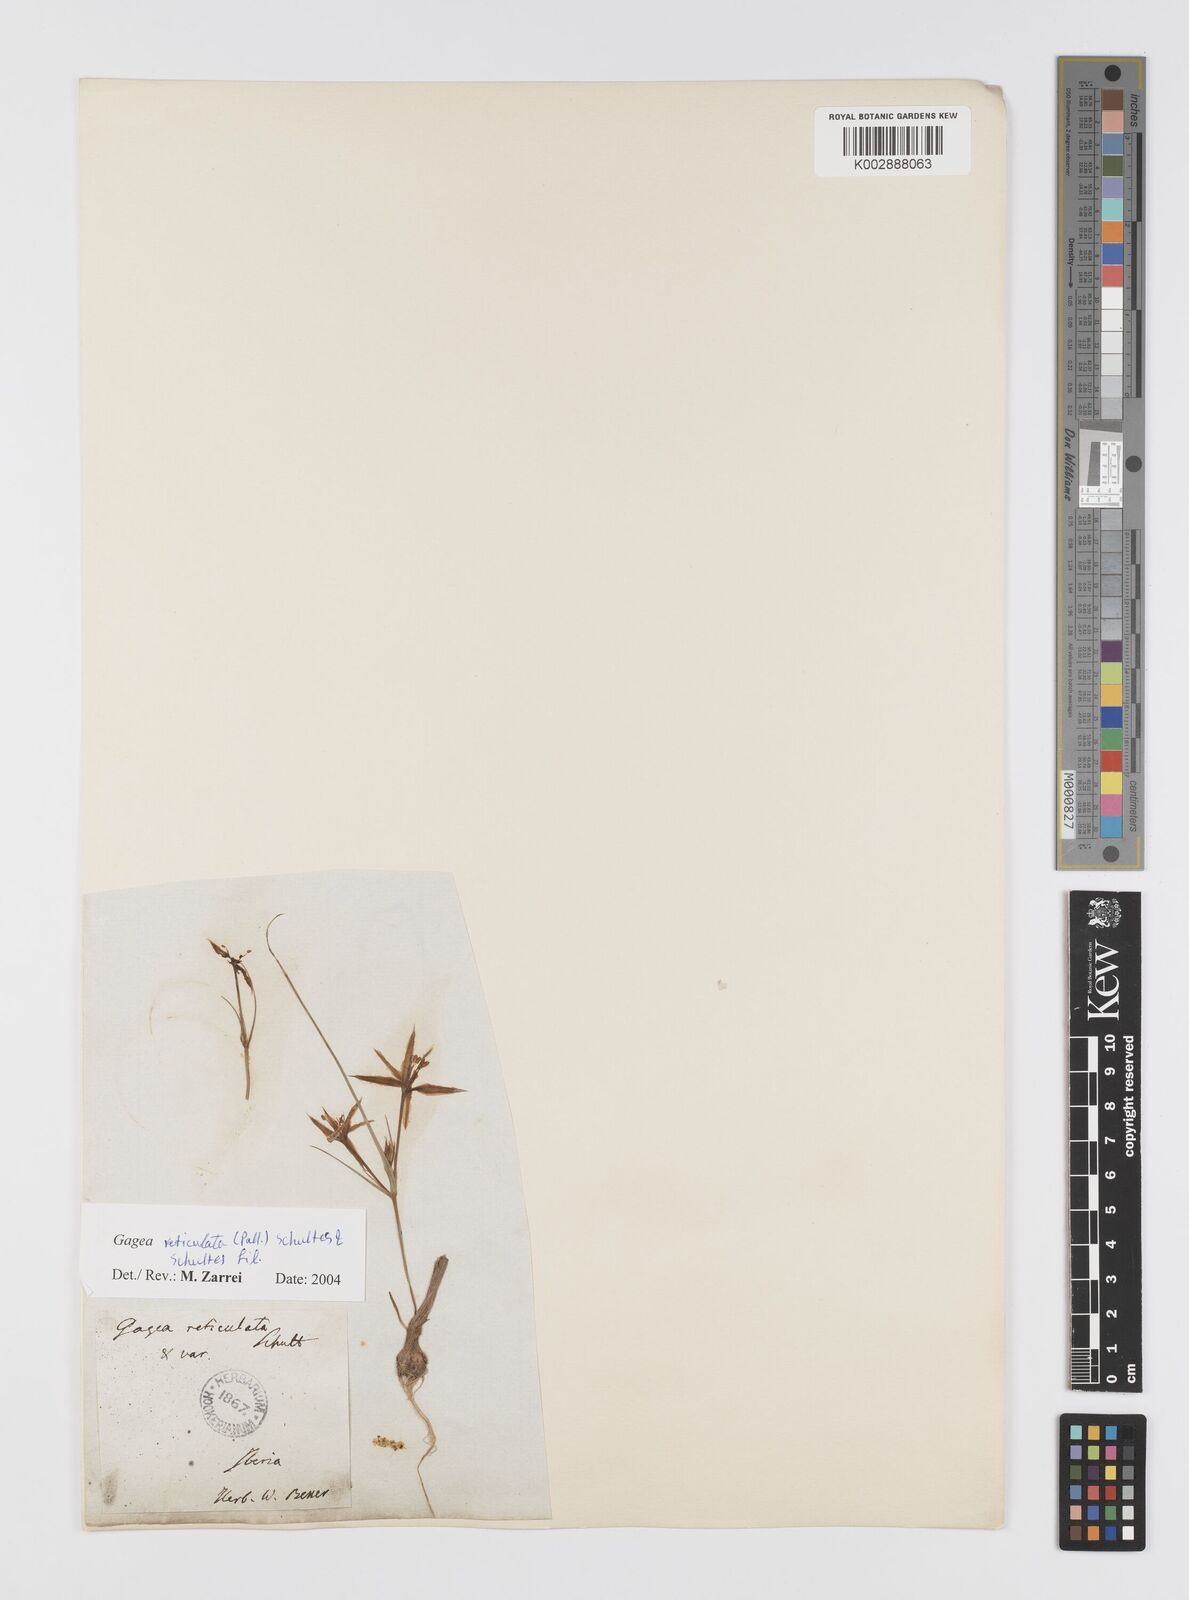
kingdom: Plantae
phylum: Tracheophyta
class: Liliopsida
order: Liliales
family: Liliaceae
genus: Gagea
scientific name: Gagea reticulata
